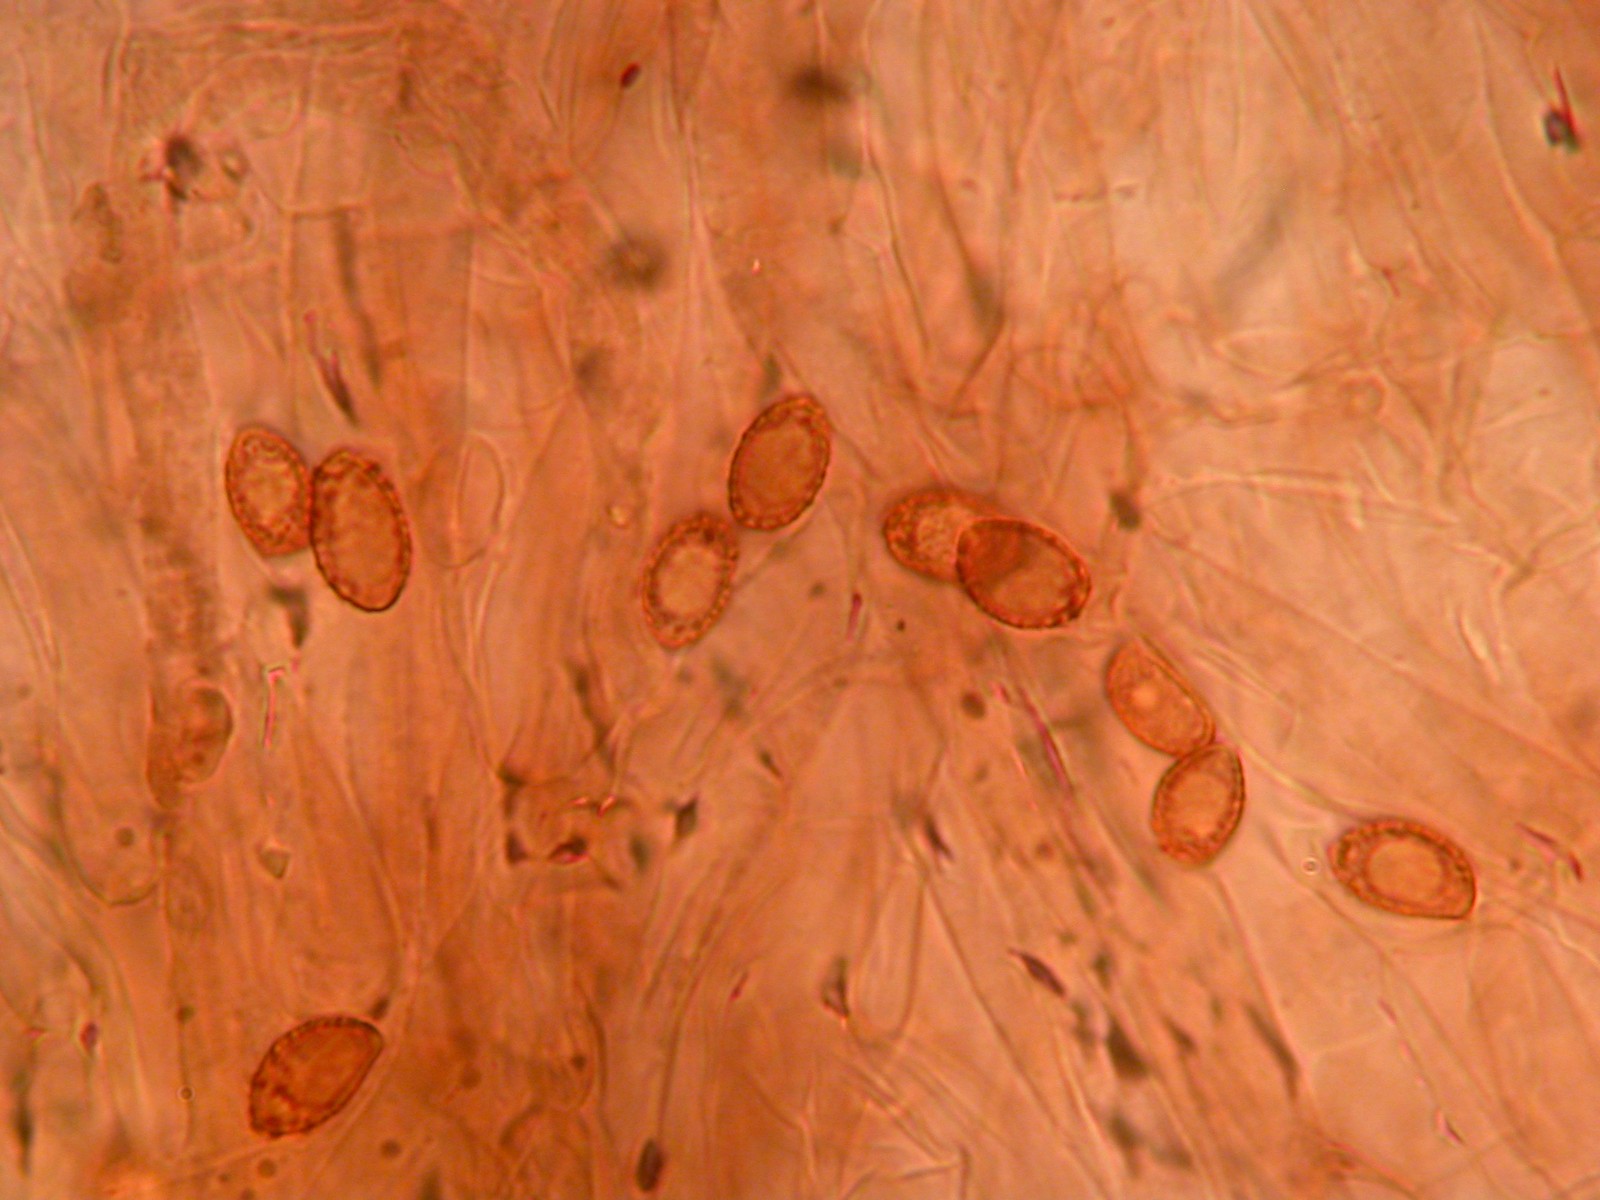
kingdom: Fungi
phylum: Basidiomycota
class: Agaricomycetes
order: Agaricales
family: Cortinariaceae
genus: Cortinarius
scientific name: Cortinarius falsosus
